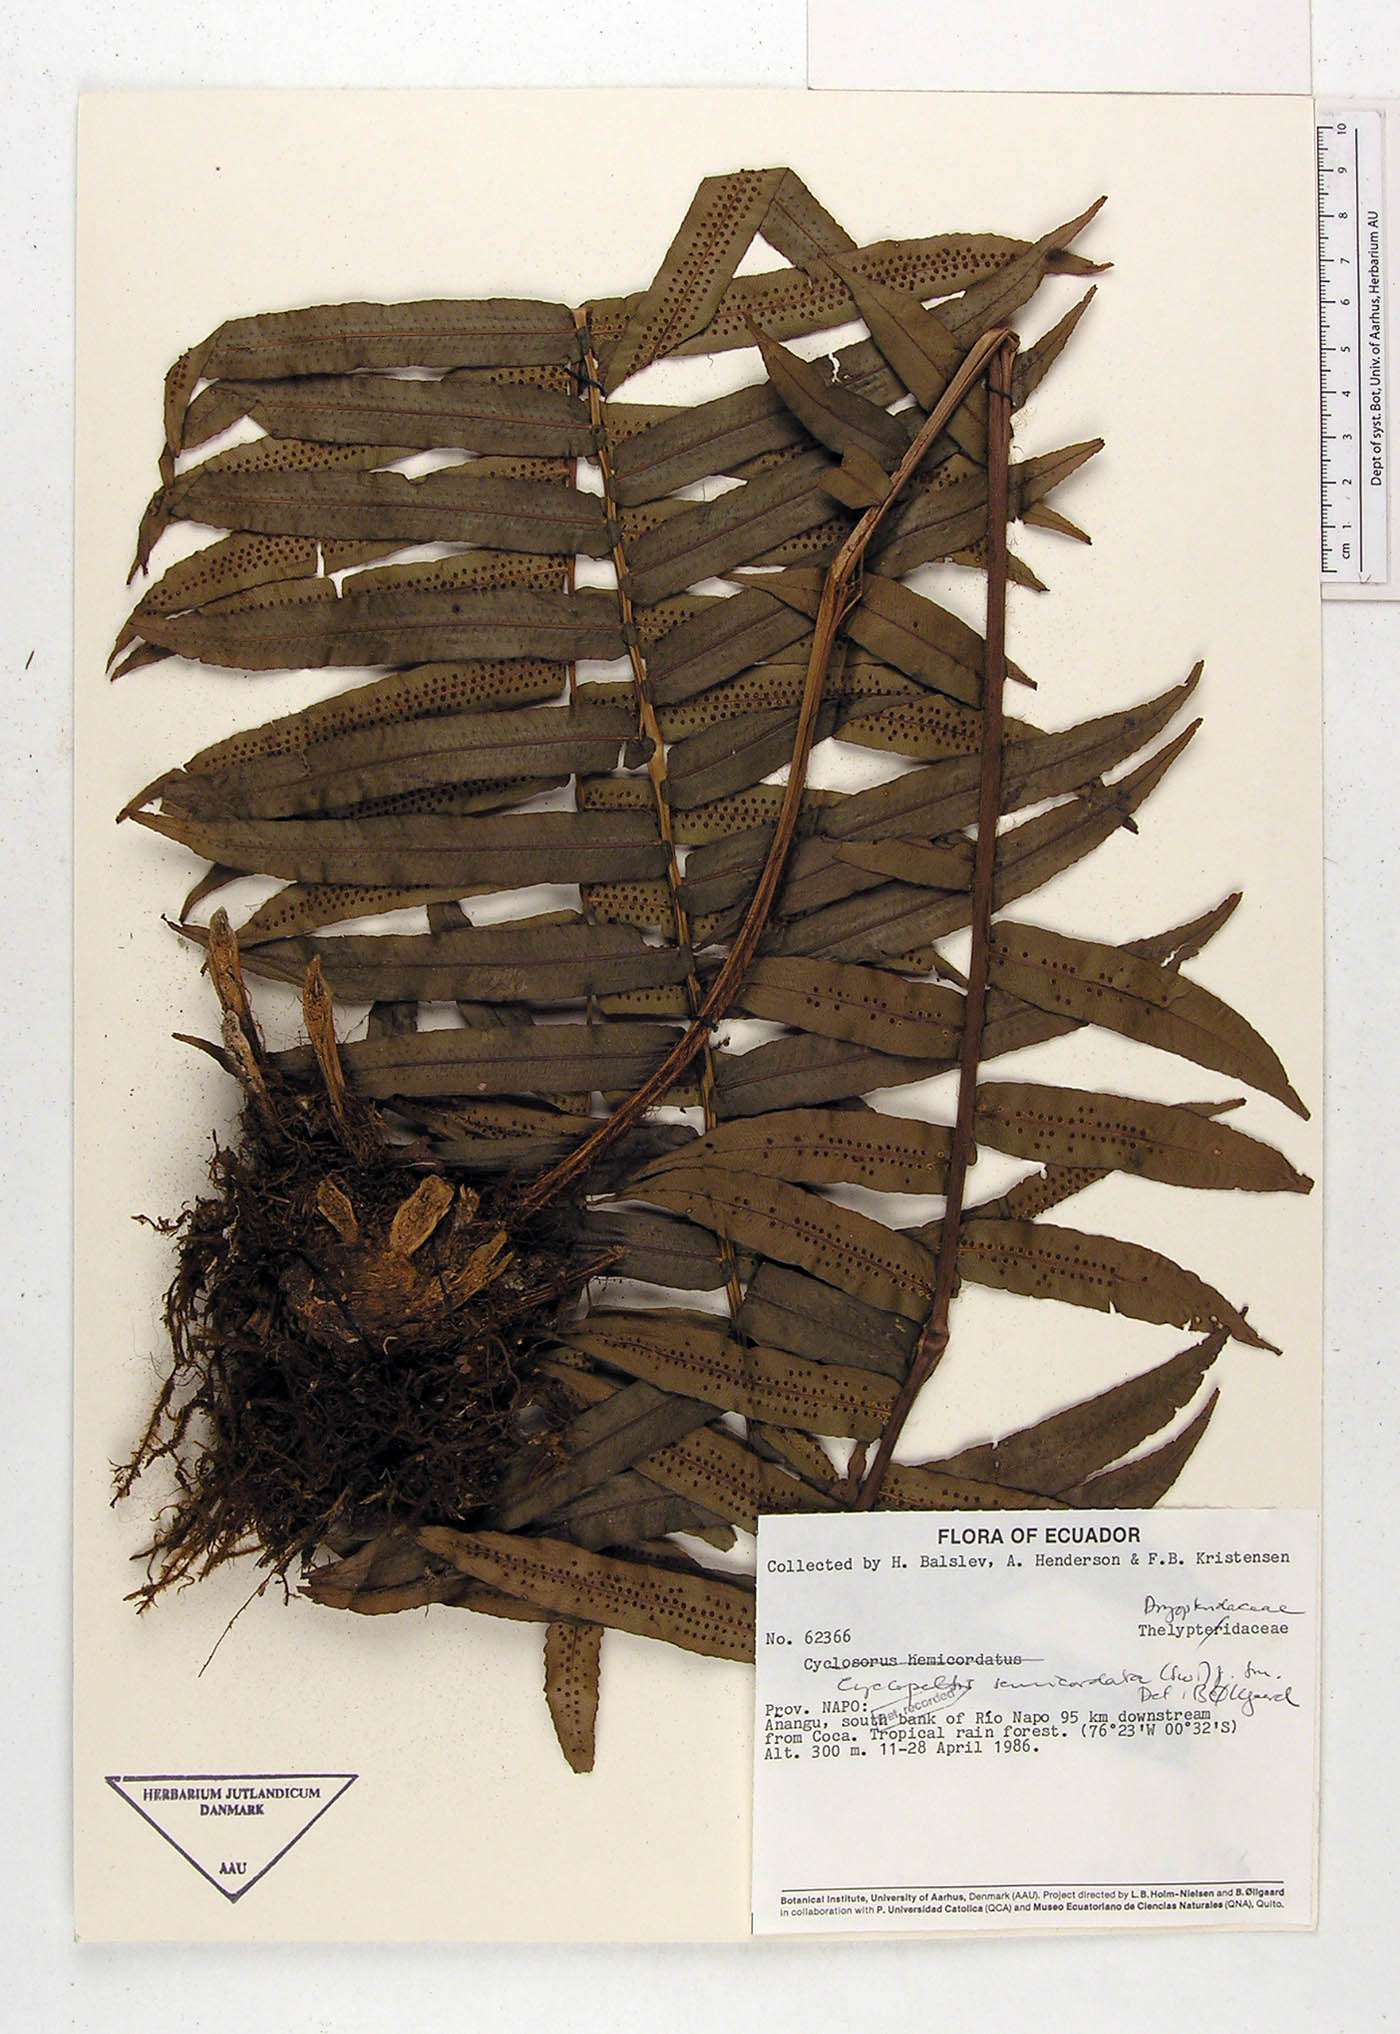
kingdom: Plantae
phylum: Tracheophyta
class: Polypodiopsida
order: Polypodiales
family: Lomariopsidaceae
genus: Cyclopeltis
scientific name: Cyclopeltis semicordata
